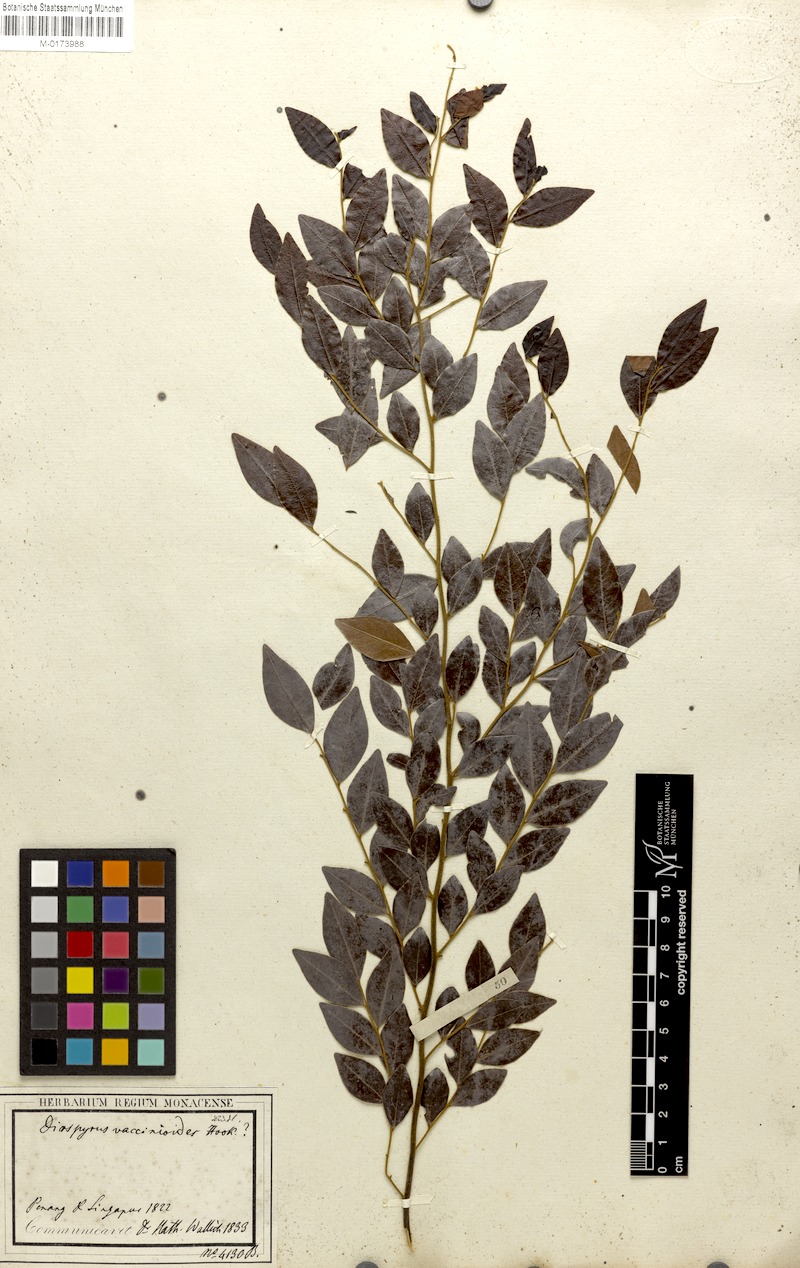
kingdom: Plantae
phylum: Tracheophyta
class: Magnoliopsida
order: Ericales
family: Ebenaceae
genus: Diospyros
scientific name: Diospyros vaccinioides
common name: Small persimmon
